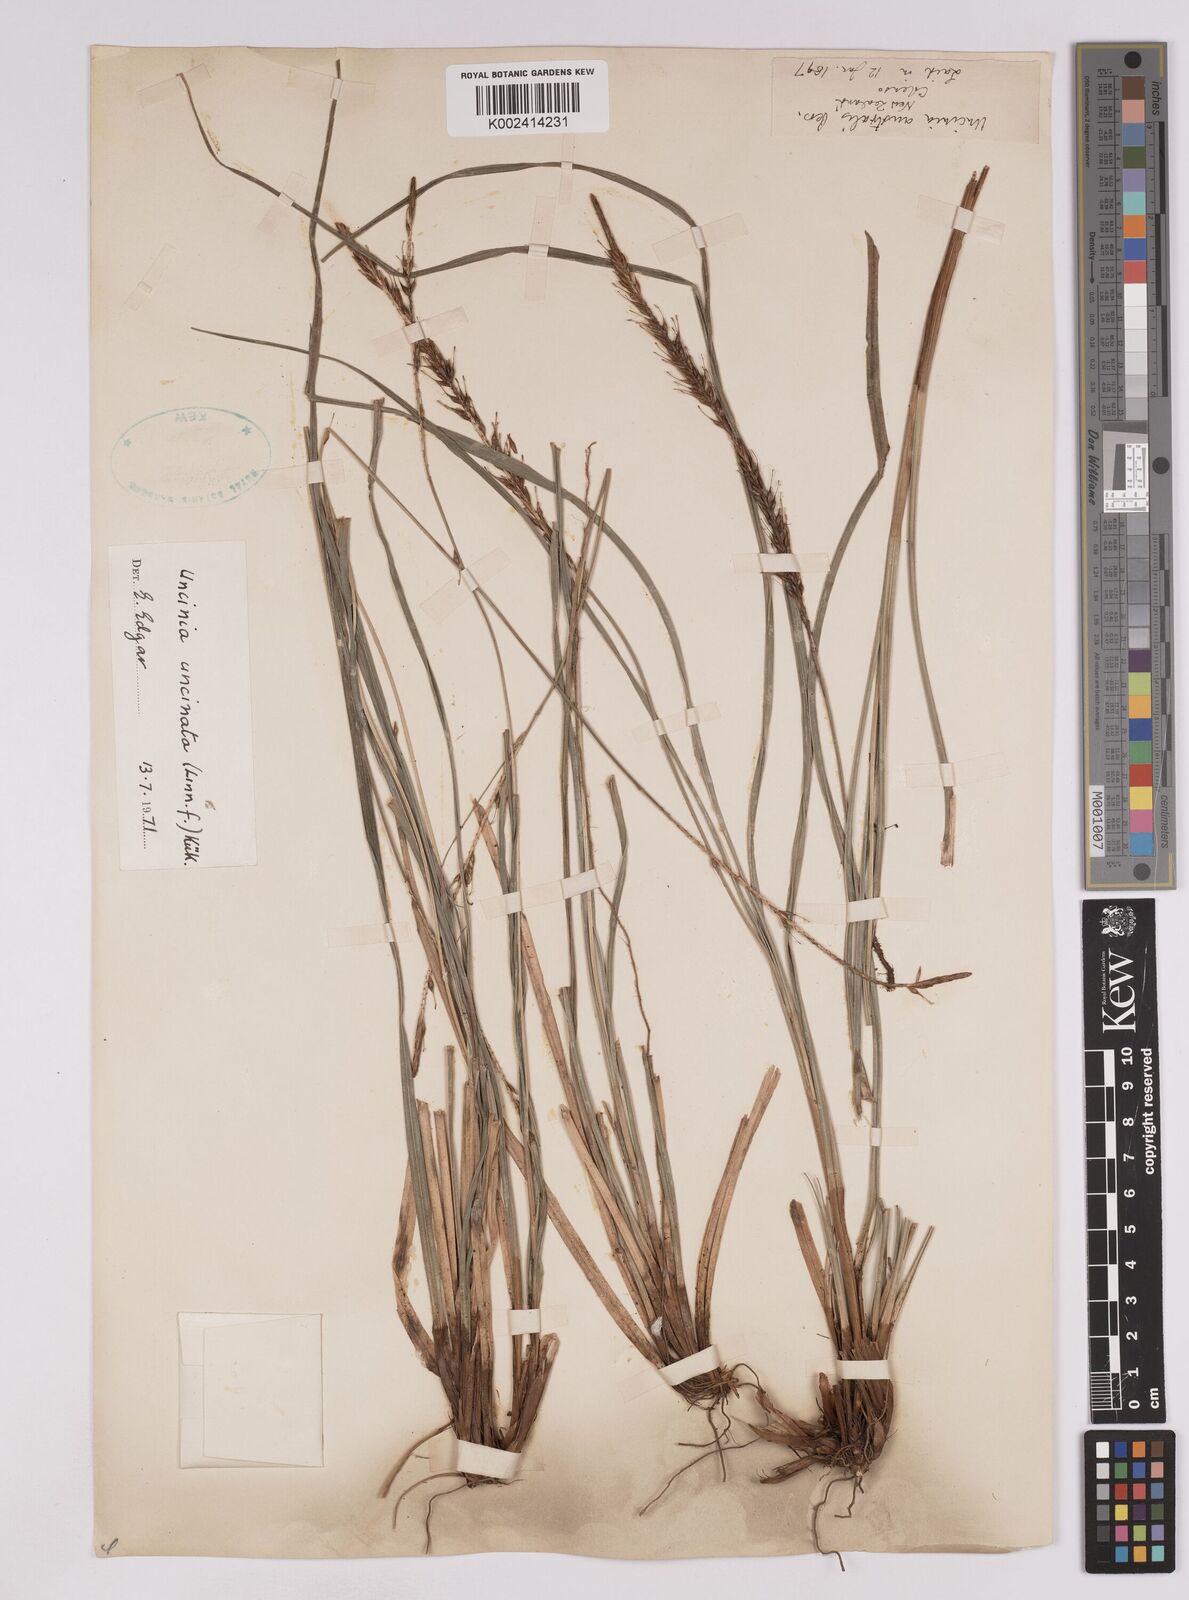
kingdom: Plantae
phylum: Tracheophyta
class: Liliopsida
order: Poales
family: Cyperaceae
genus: Carex
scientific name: Carex uncinata
